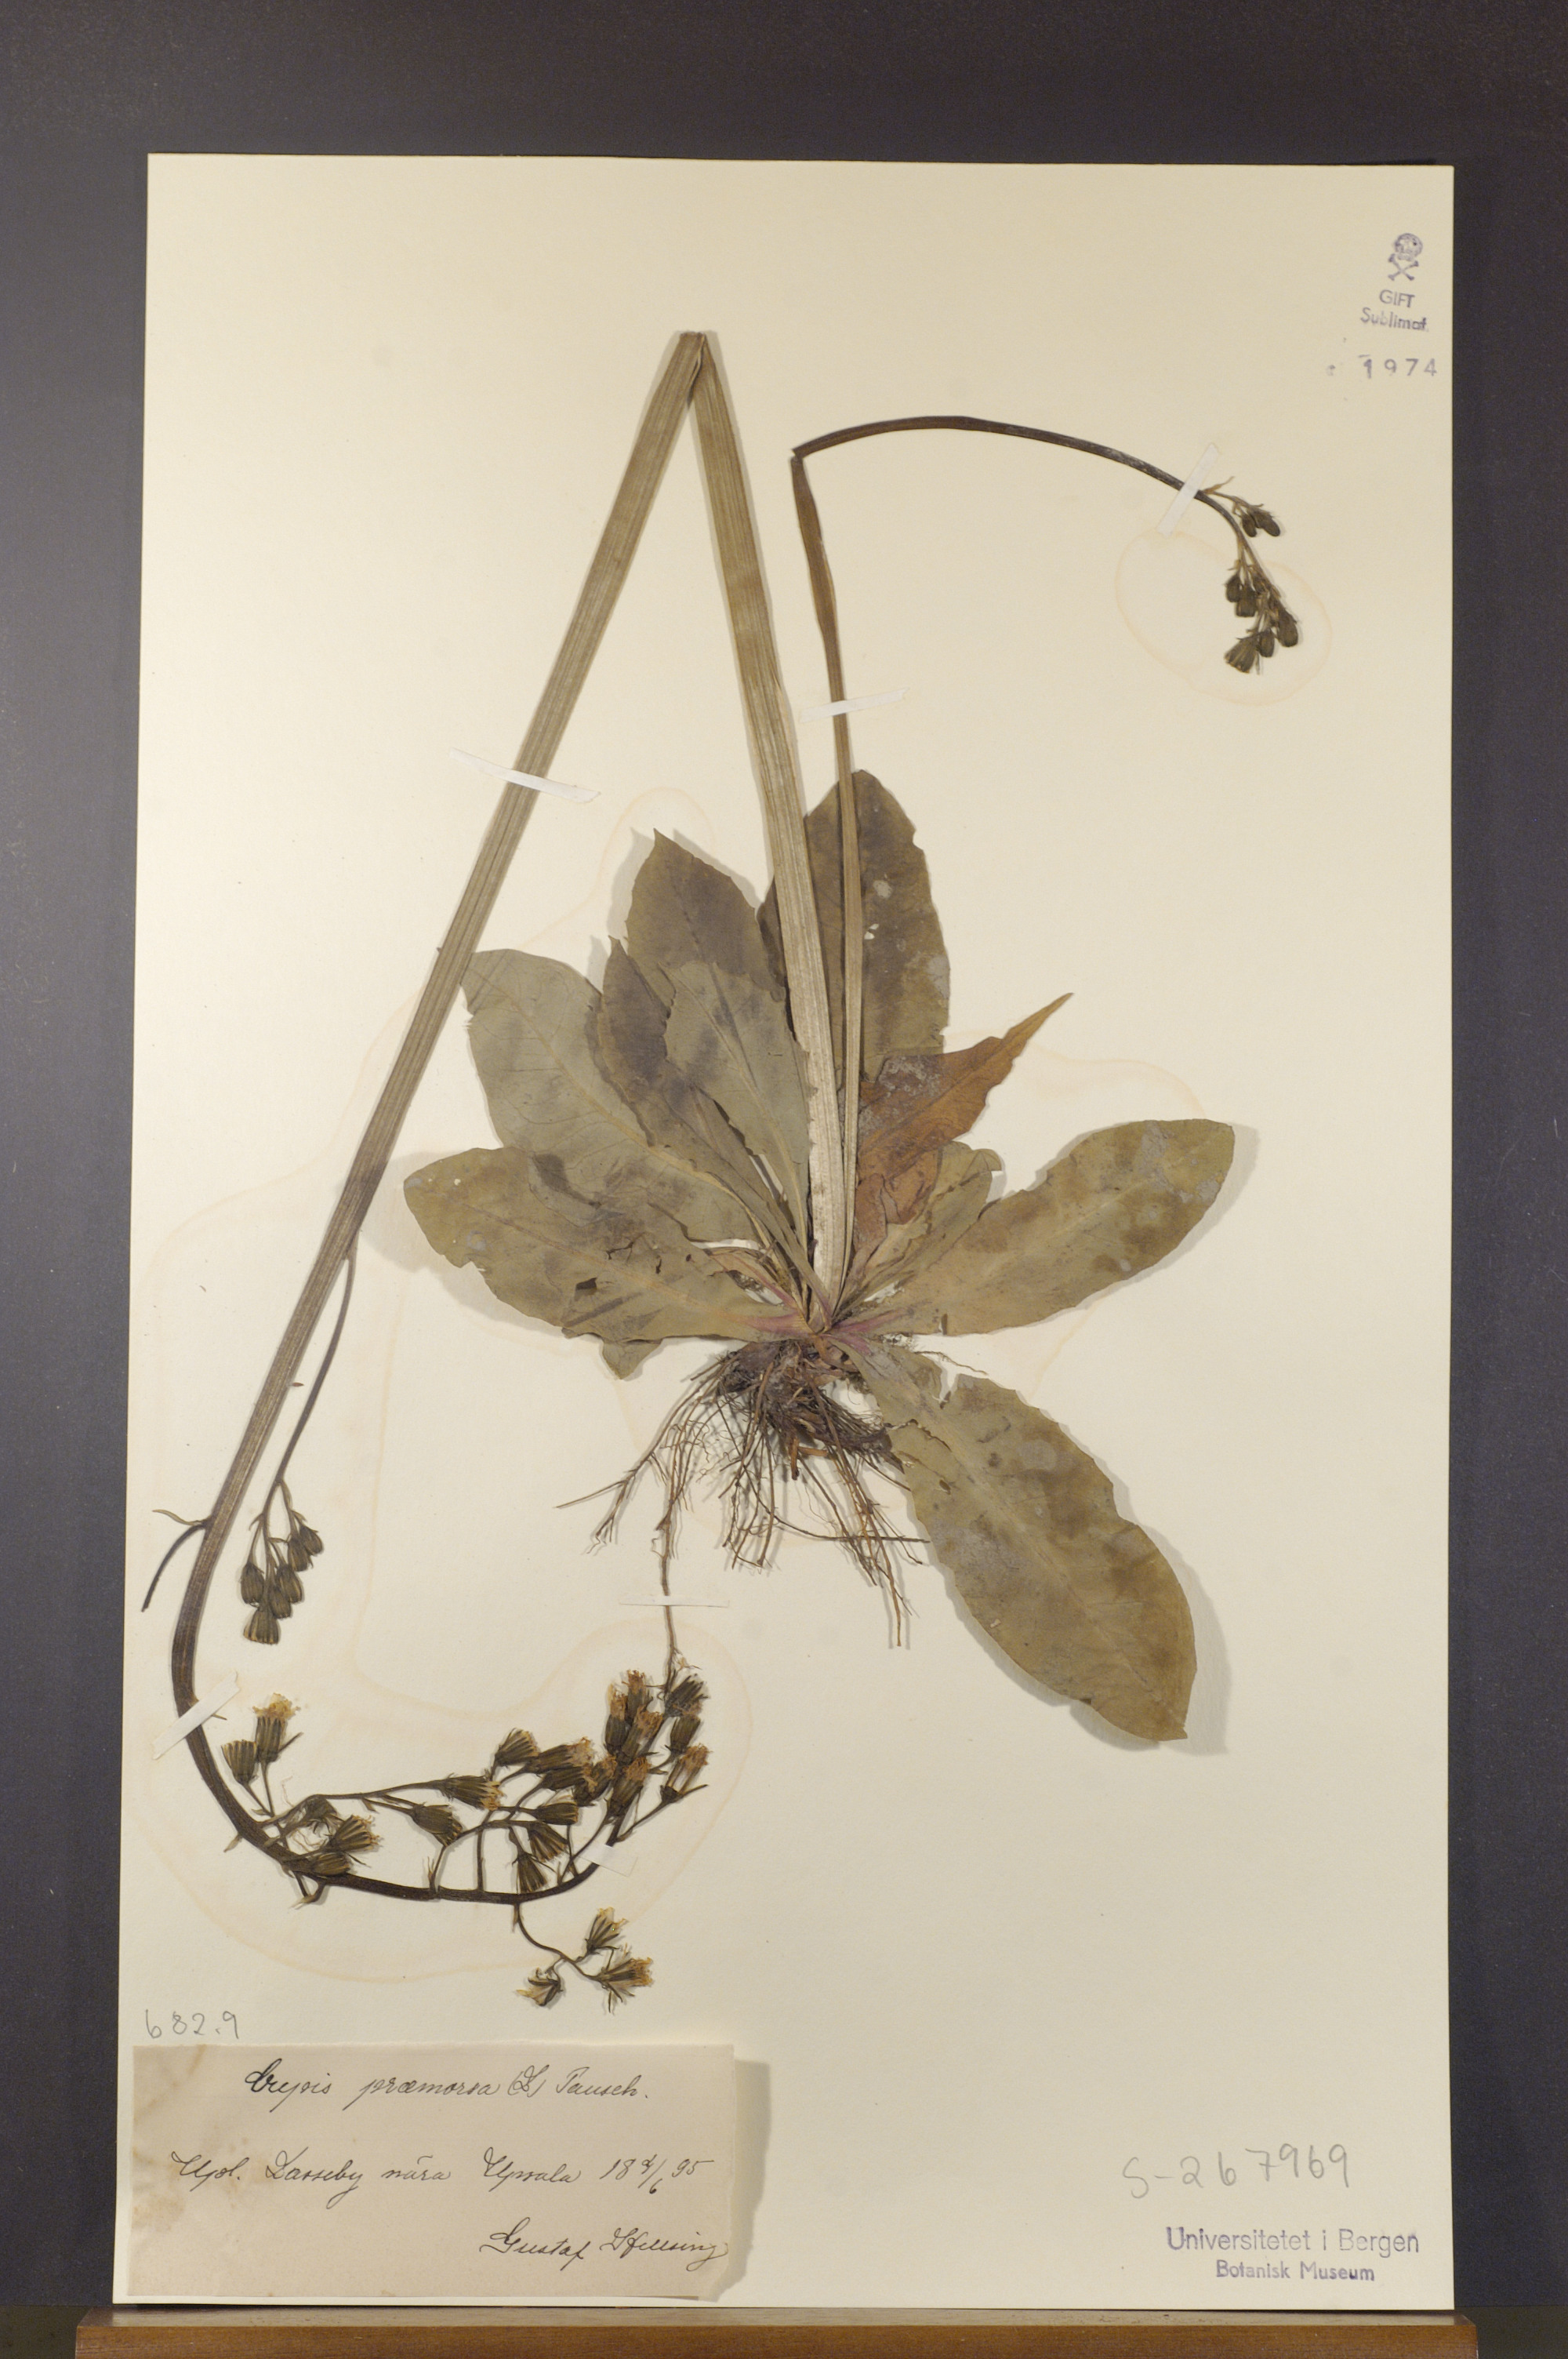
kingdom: Plantae
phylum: Tracheophyta
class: Magnoliopsida
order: Asterales
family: Asteraceae
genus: Crepis
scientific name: Crepis praemorsa
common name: Leafless hawk's-beard
